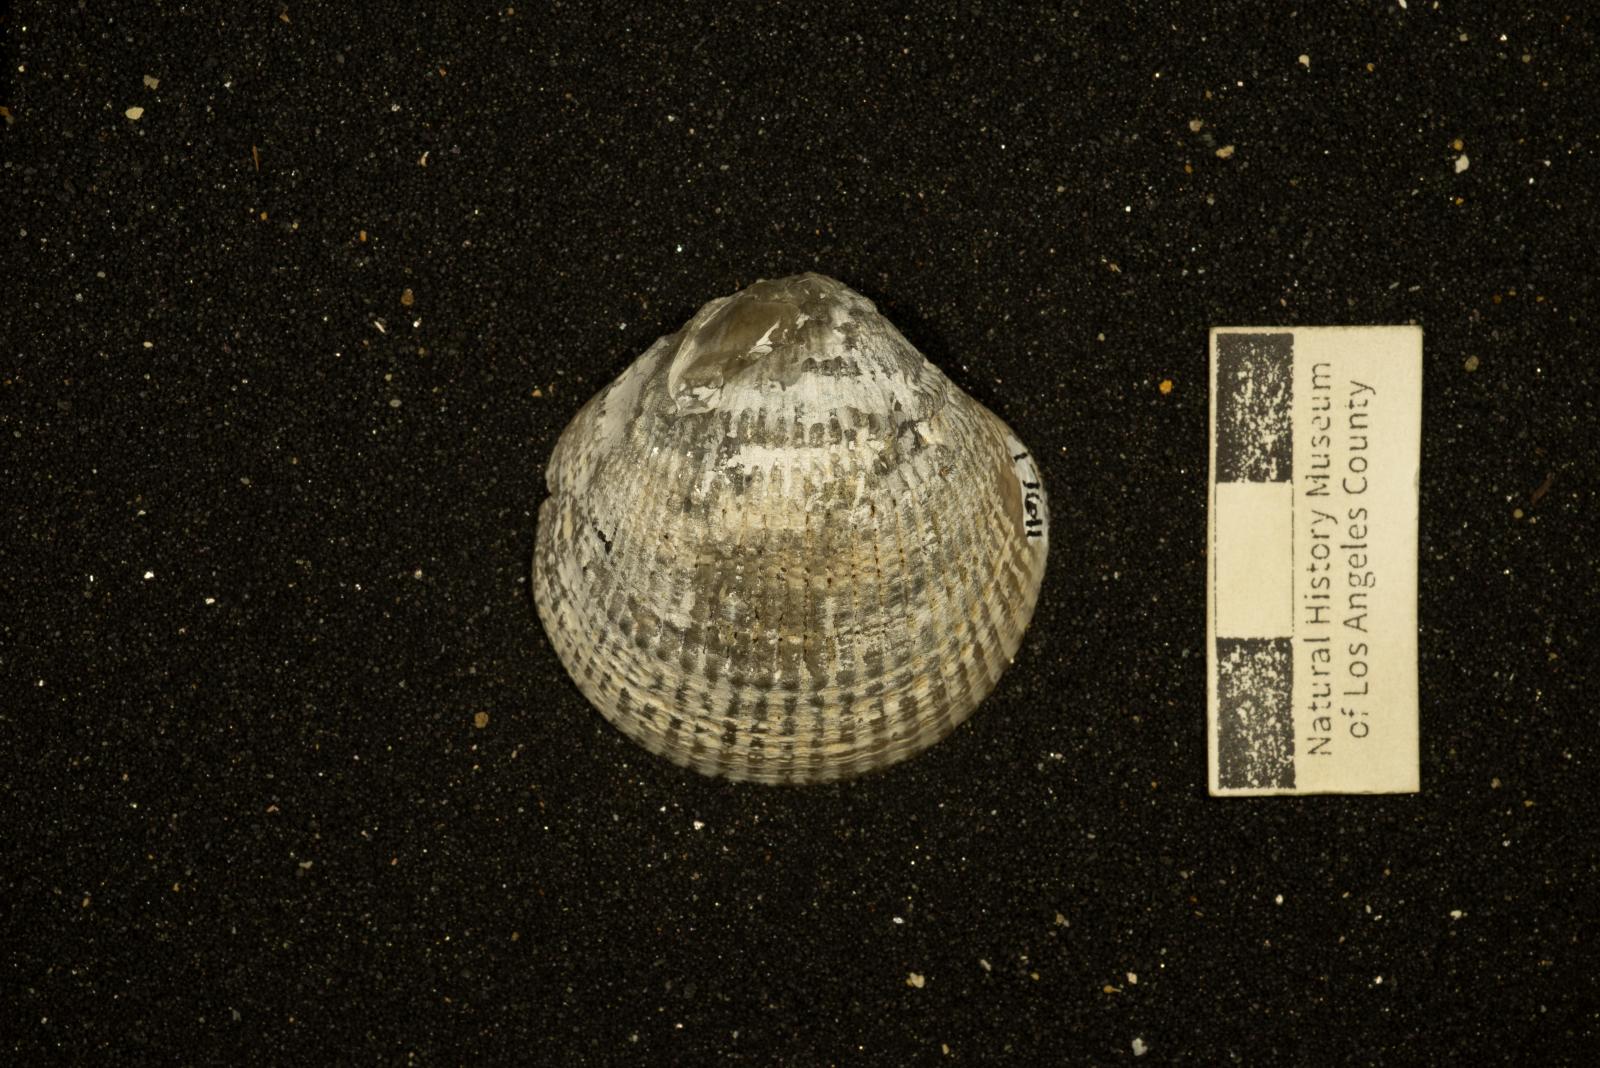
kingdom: Animalia
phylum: Mollusca
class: Bivalvia
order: Arcida
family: Glycymerididae
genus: Glycymerita
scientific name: Glycymerita Axinaea veatchii
